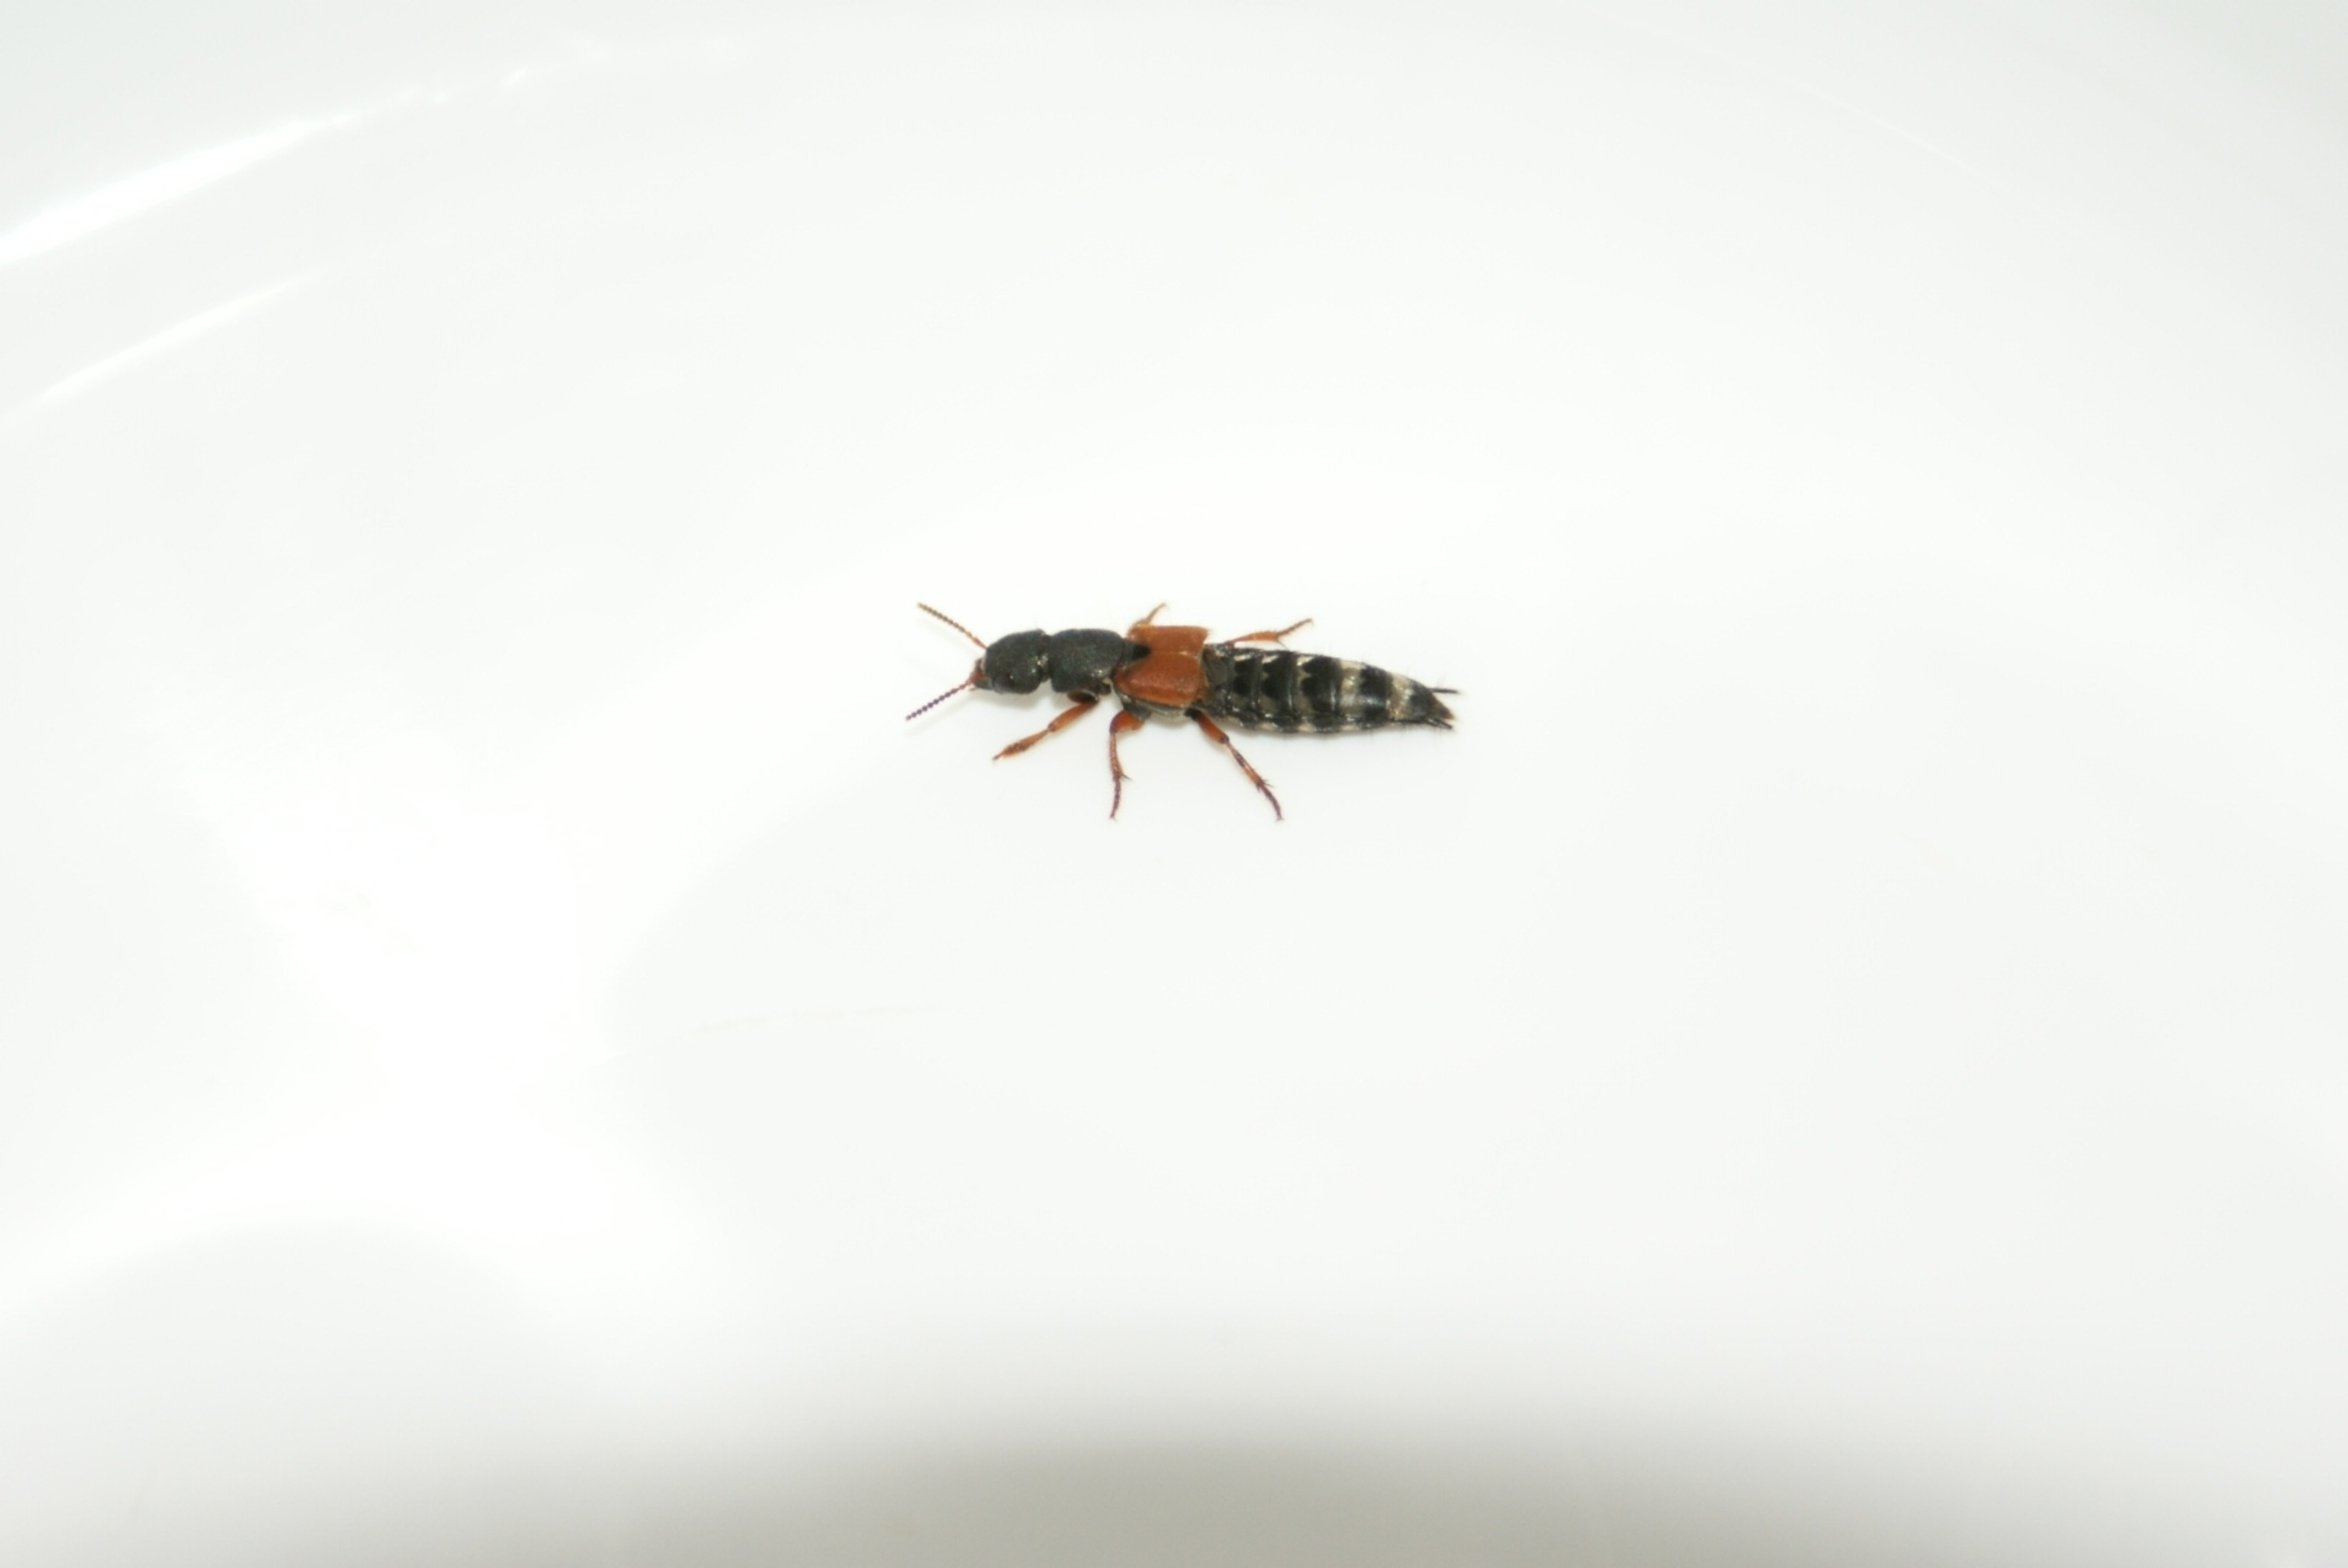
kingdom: Animalia
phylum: Arthropoda
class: Insecta
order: Coleoptera
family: Staphylinidae
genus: Platydracus
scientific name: Platydracus stercorarius
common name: Almindelig guldpletrovbille
